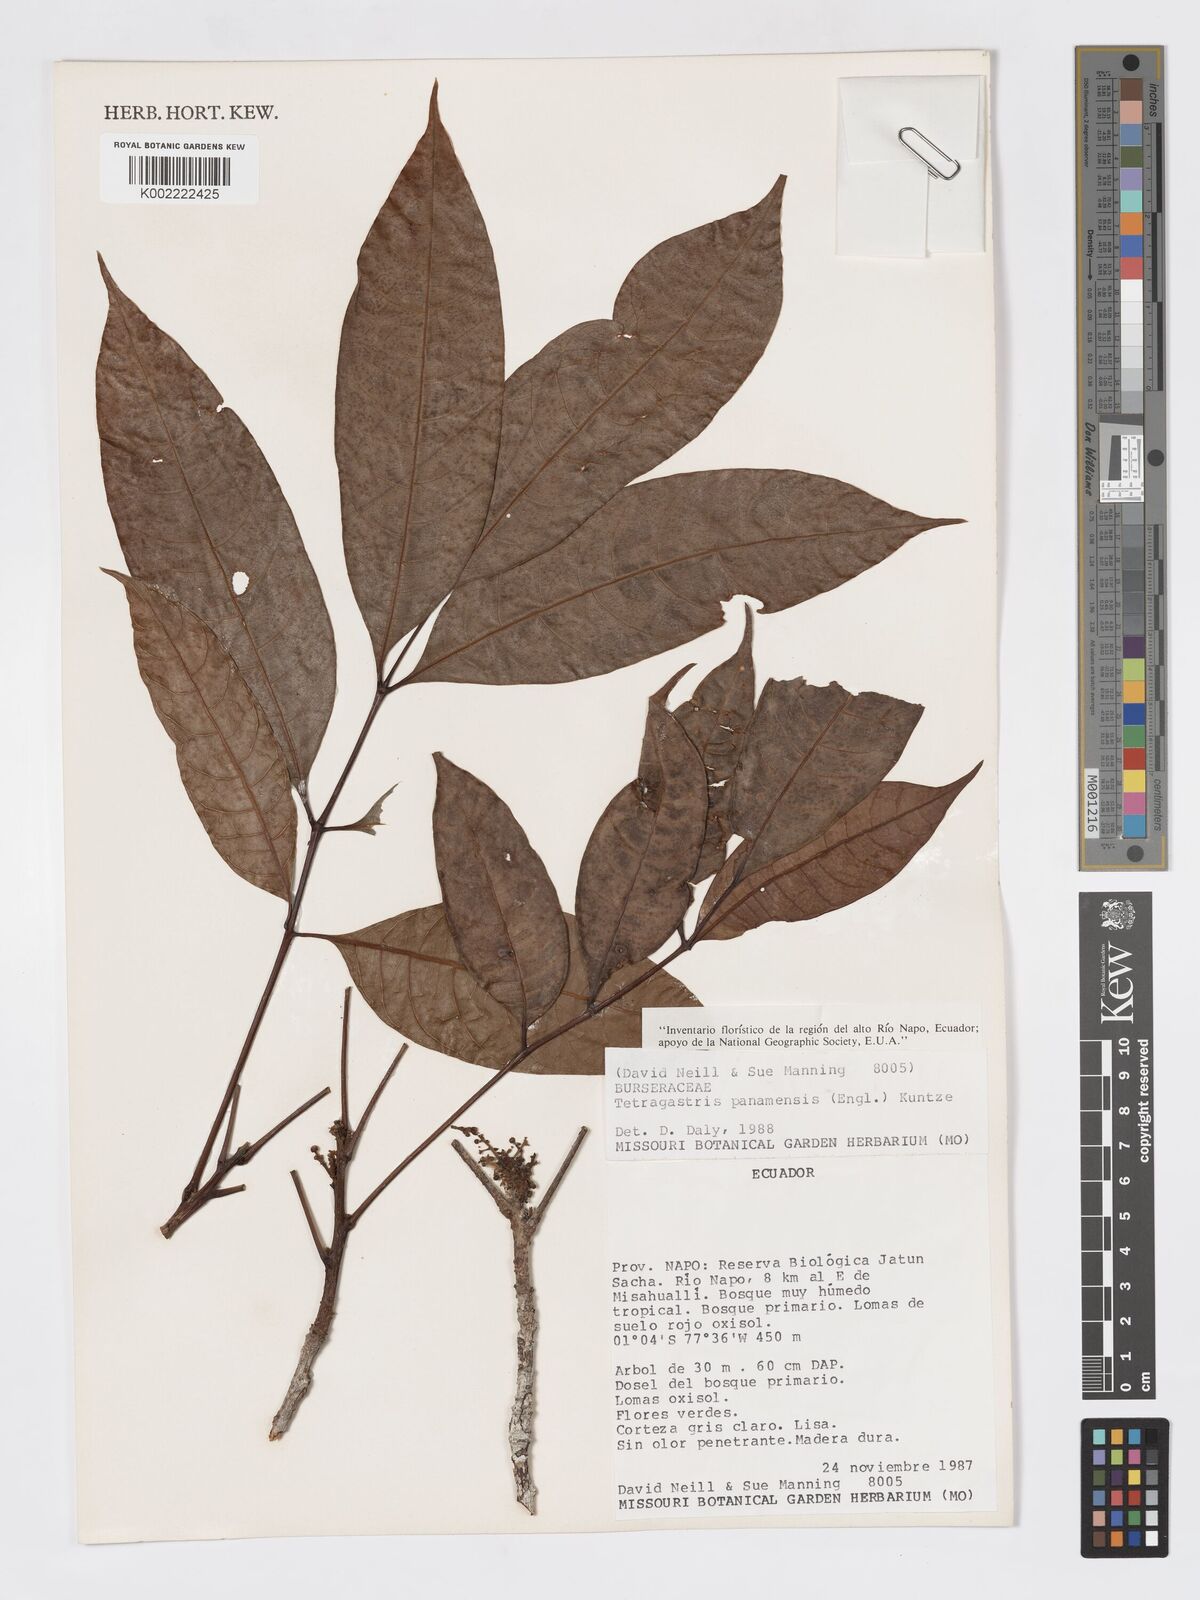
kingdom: Plantae
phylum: Tracheophyta
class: Magnoliopsida
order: Sapindales
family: Burseraceae
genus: Tetragastris
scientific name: Tetragastris panamensis
